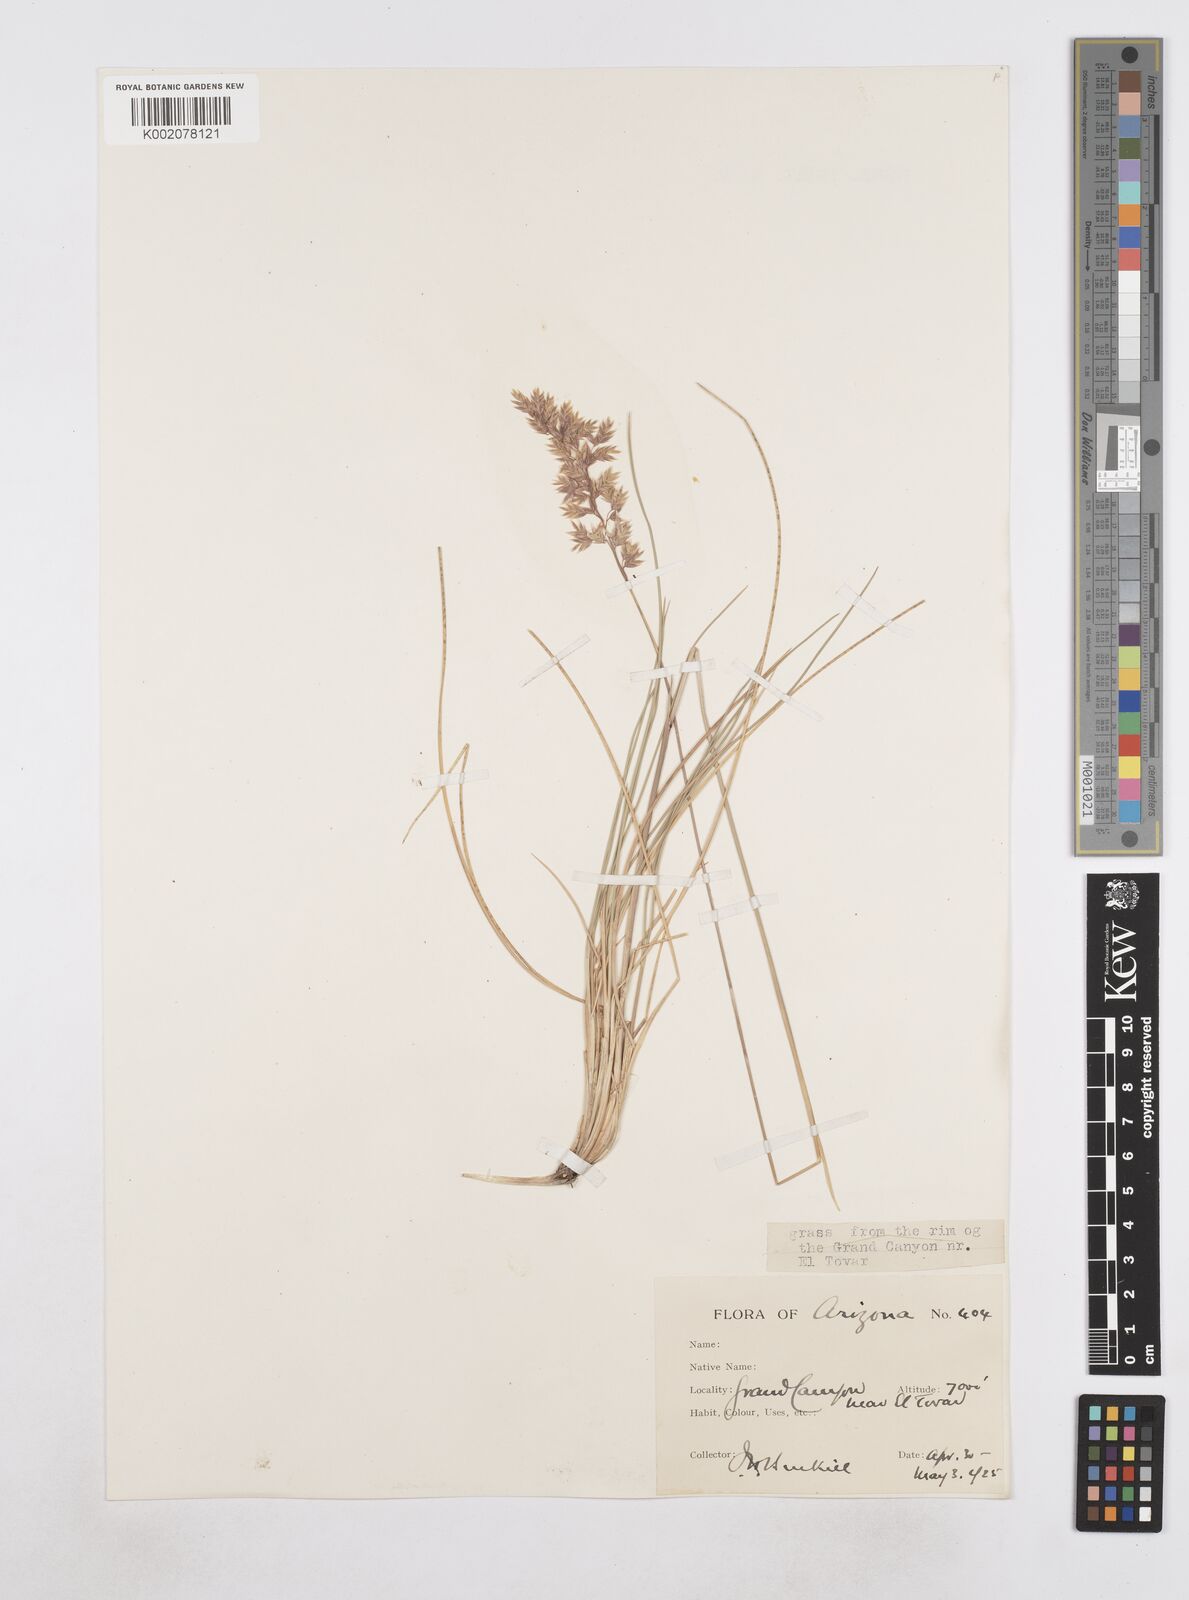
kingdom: Plantae
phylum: Tracheophyta
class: Liliopsida
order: Poales
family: Poaceae
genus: Poa
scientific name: Poa
